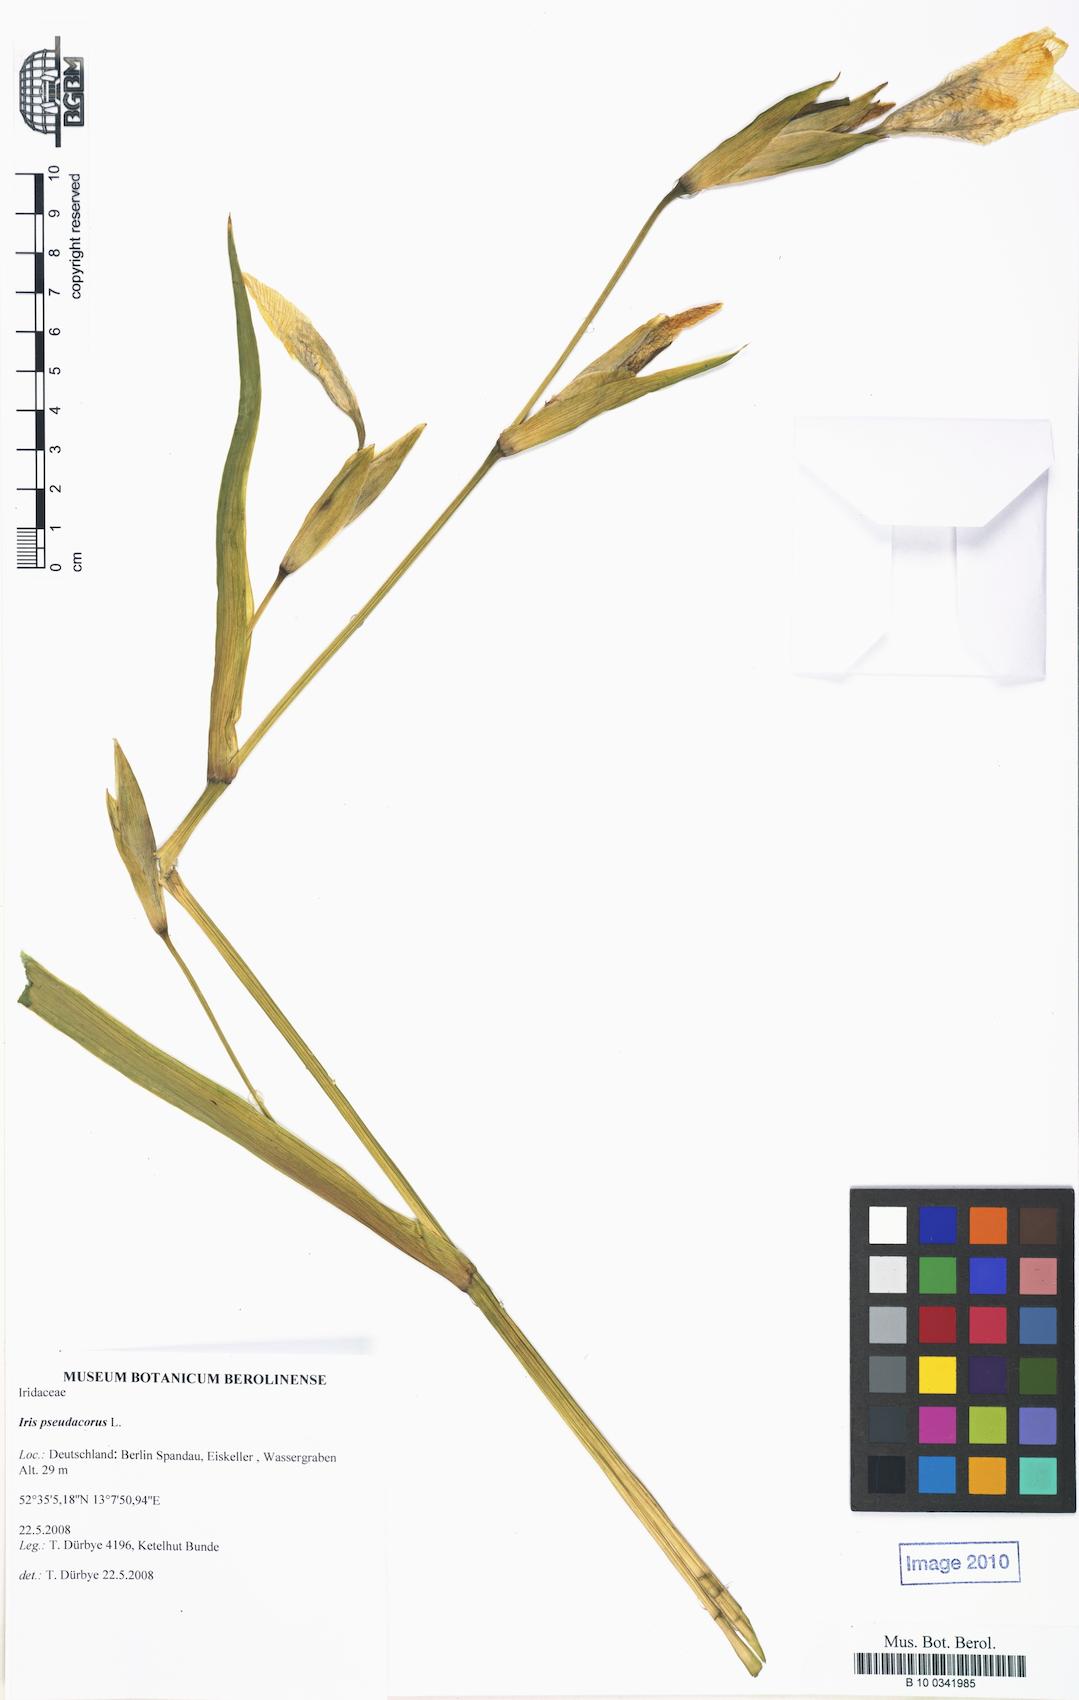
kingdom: Plantae
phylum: Tracheophyta
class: Liliopsida
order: Asparagales
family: Iridaceae
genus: Iris
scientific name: Iris pseudacorus
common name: Yellow flag
